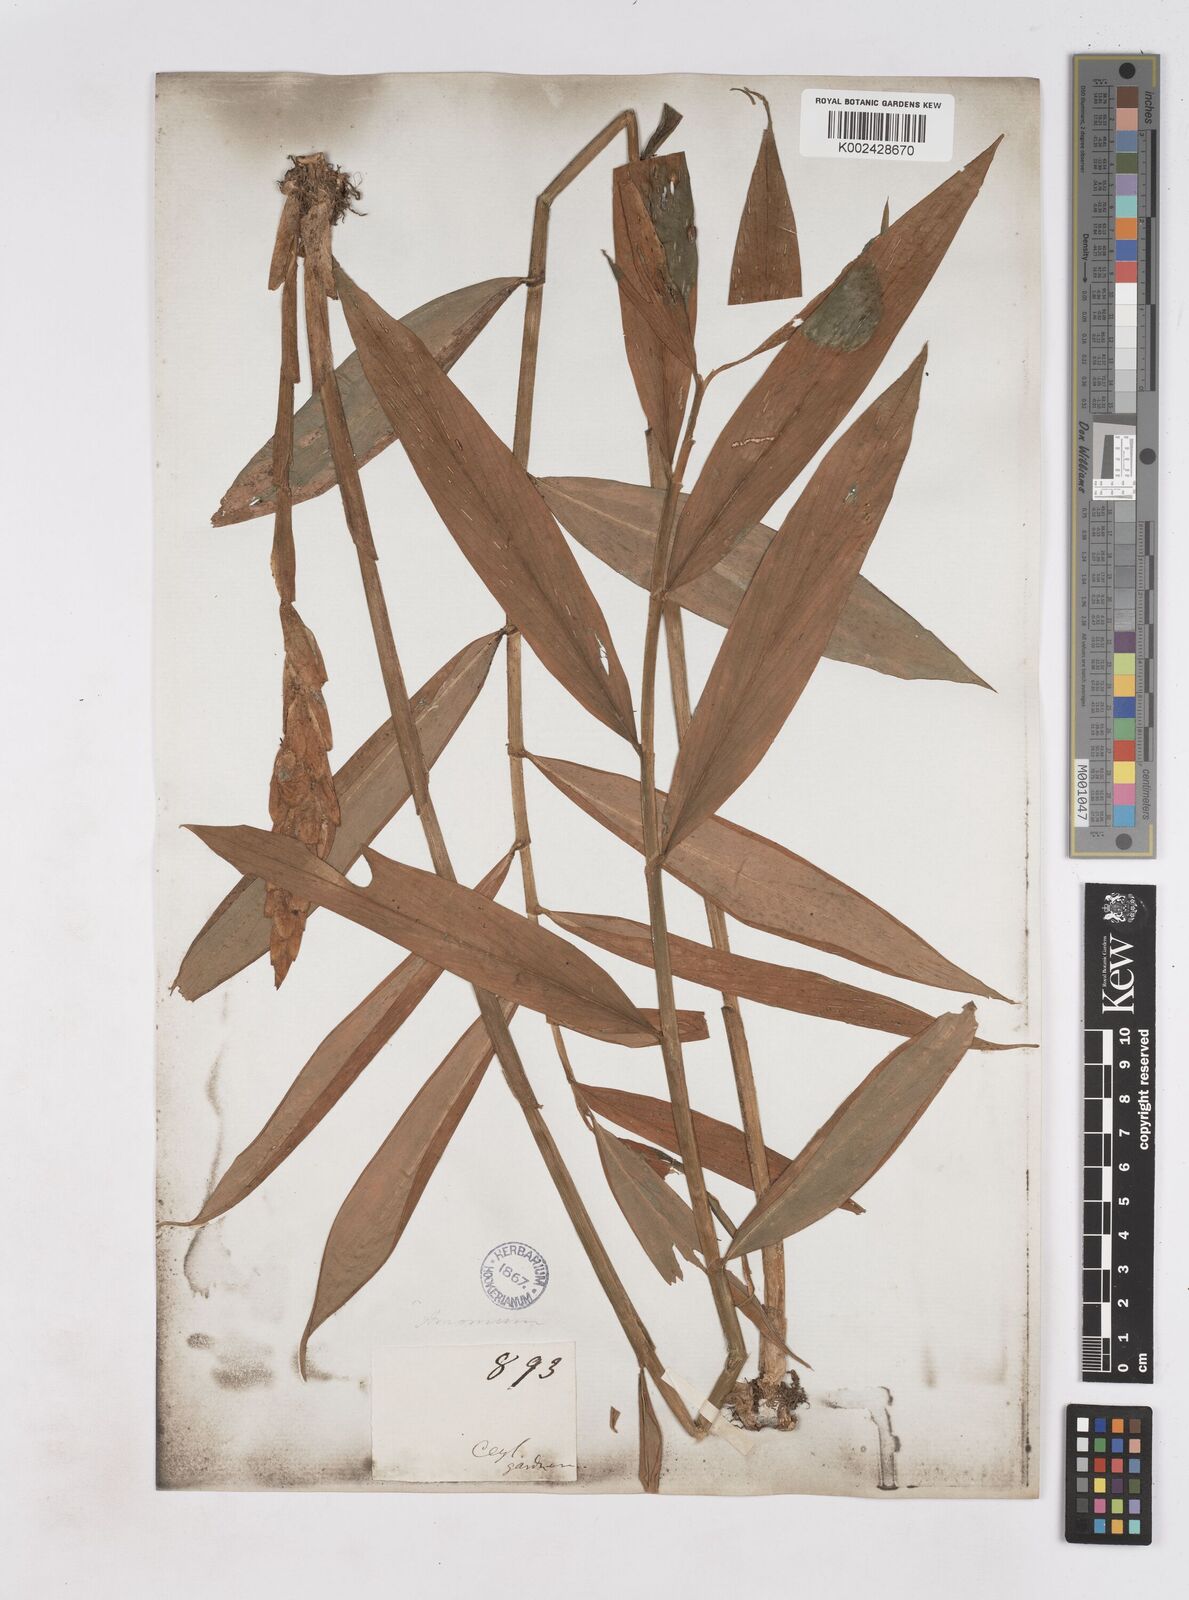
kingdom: Plantae
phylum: Tracheophyta
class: Liliopsida
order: Zingiberales
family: Zingiberaceae
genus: Zingiber
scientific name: Zingiber cylindricum
